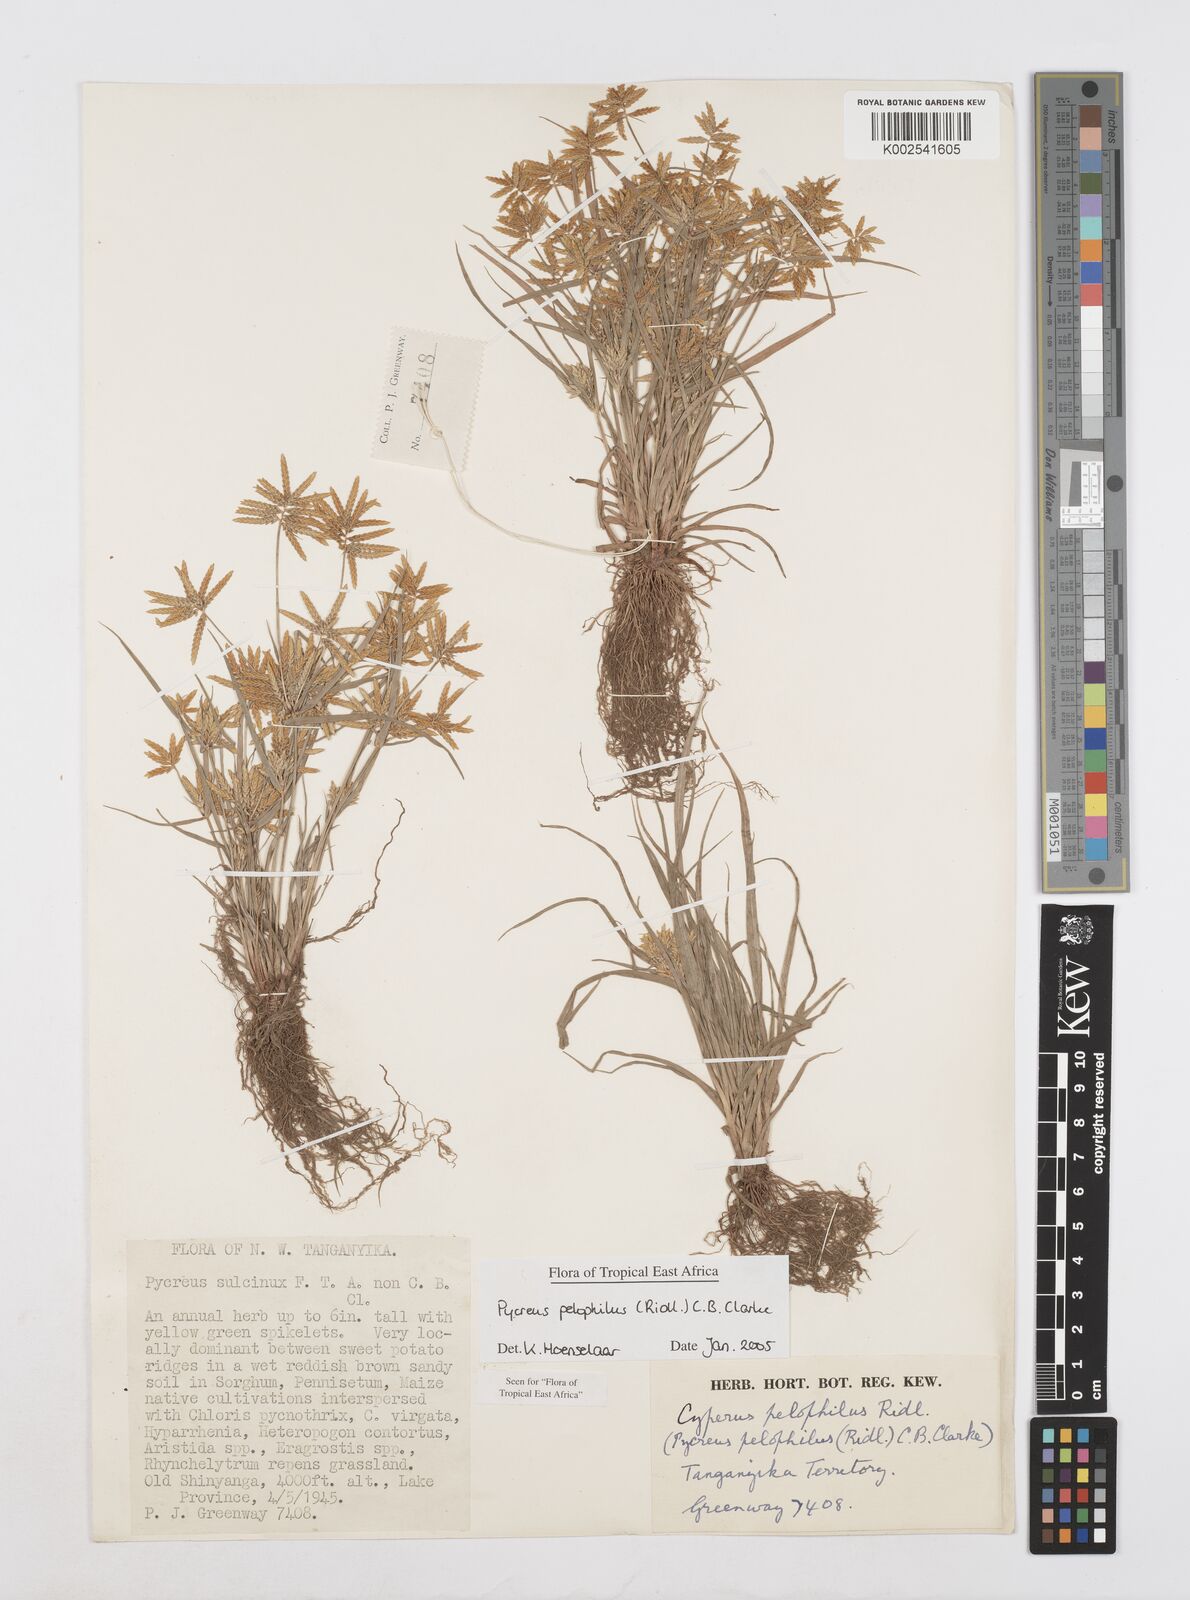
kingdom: Plantae
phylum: Tracheophyta
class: Liliopsida
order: Poales
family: Cyperaceae
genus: Cyperus
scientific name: Cyperus pelophilus
